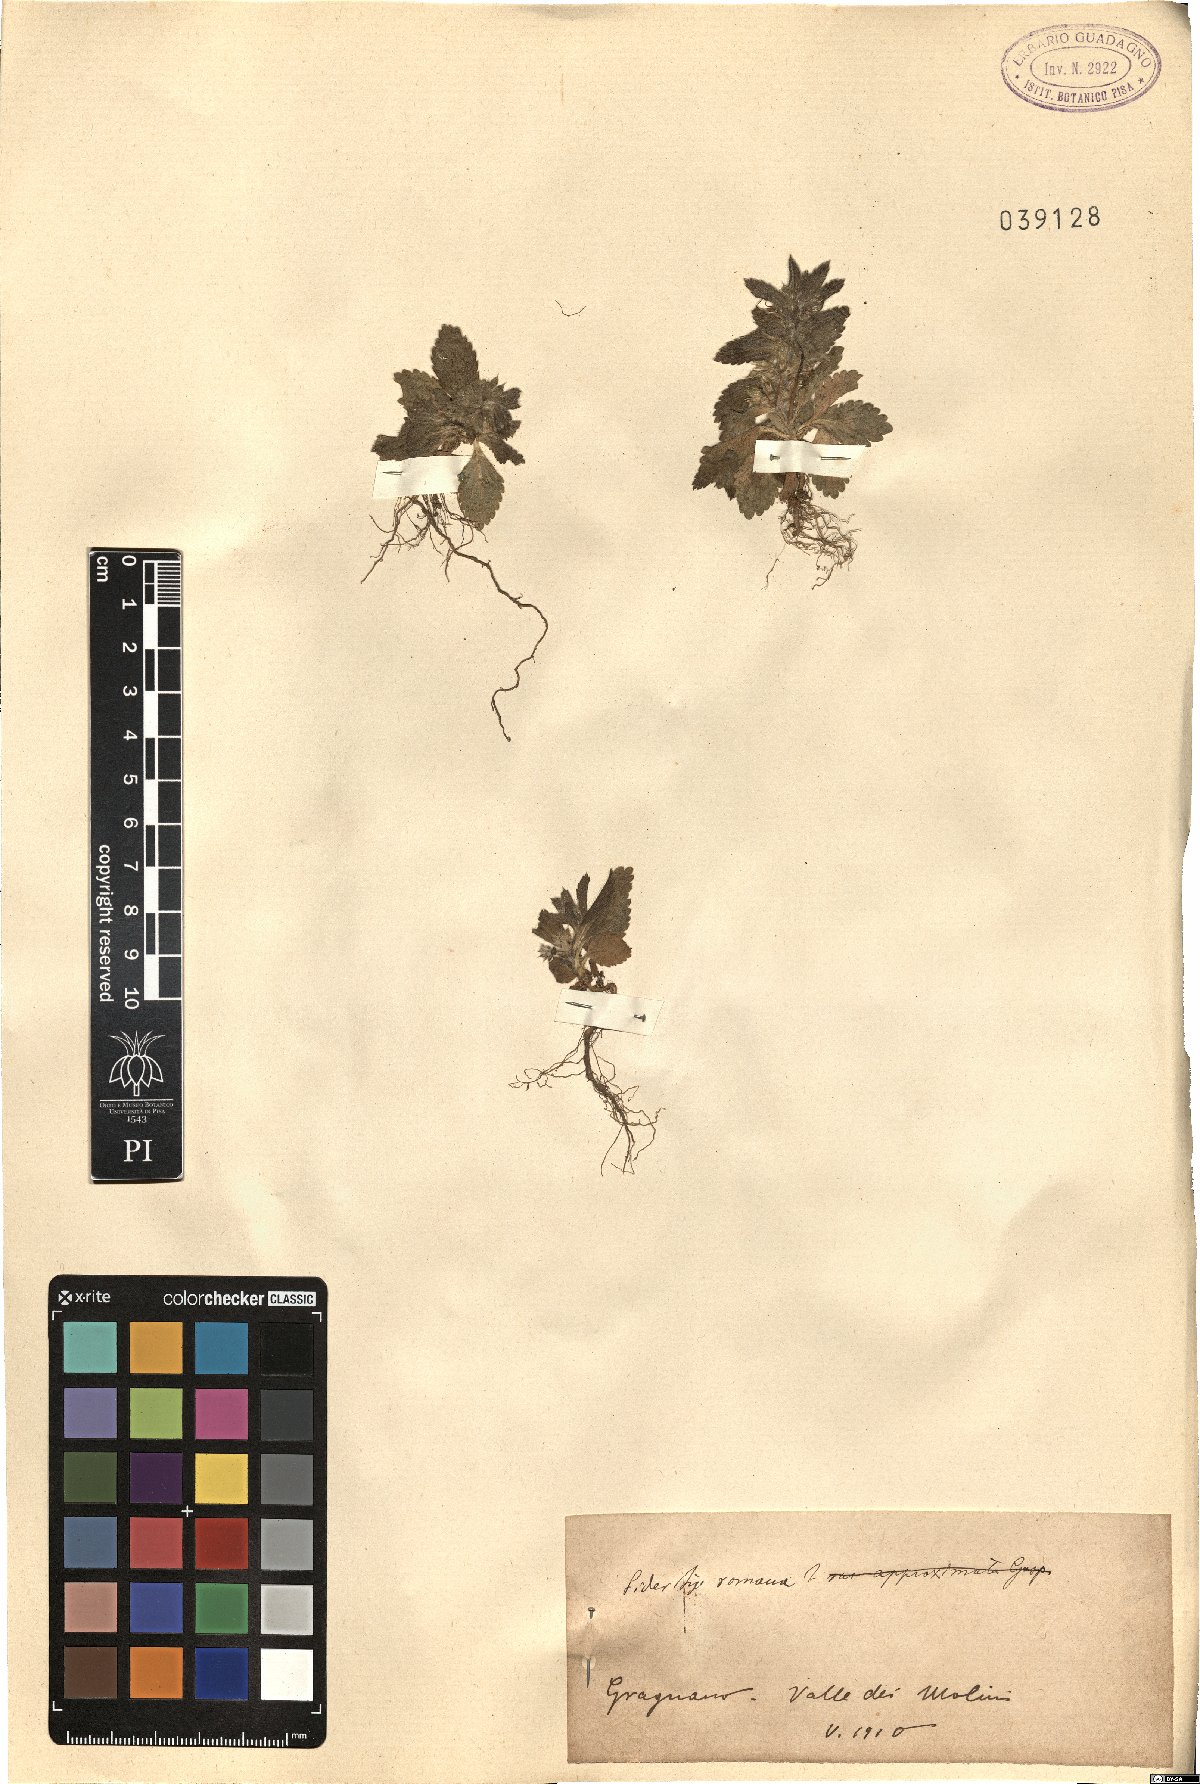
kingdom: Plantae
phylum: Tracheophyta
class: Magnoliopsida
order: Lamiales
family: Lamiaceae
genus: Sideritis
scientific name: Sideritis romana
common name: Simplebeak ironwort
